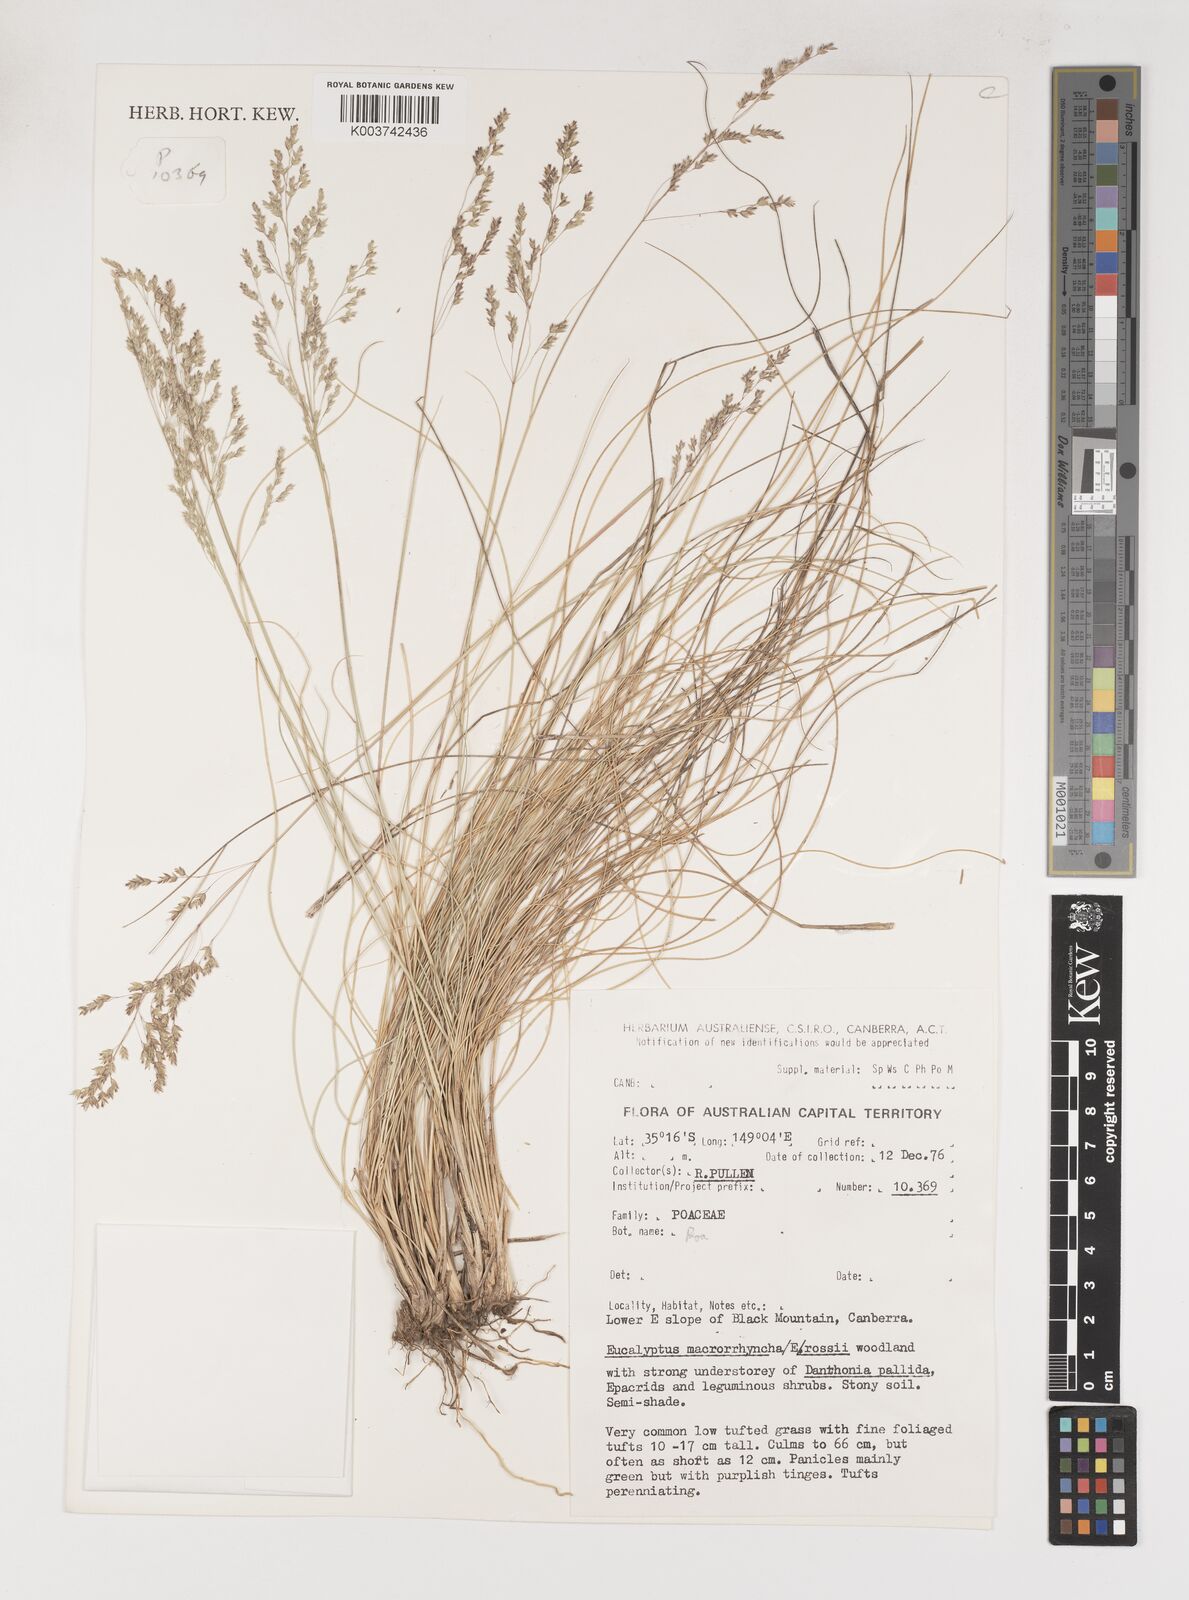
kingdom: Plantae
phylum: Tracheophyta
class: Liliopsida
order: Poales
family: Poaceae
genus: Poa
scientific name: Poa
